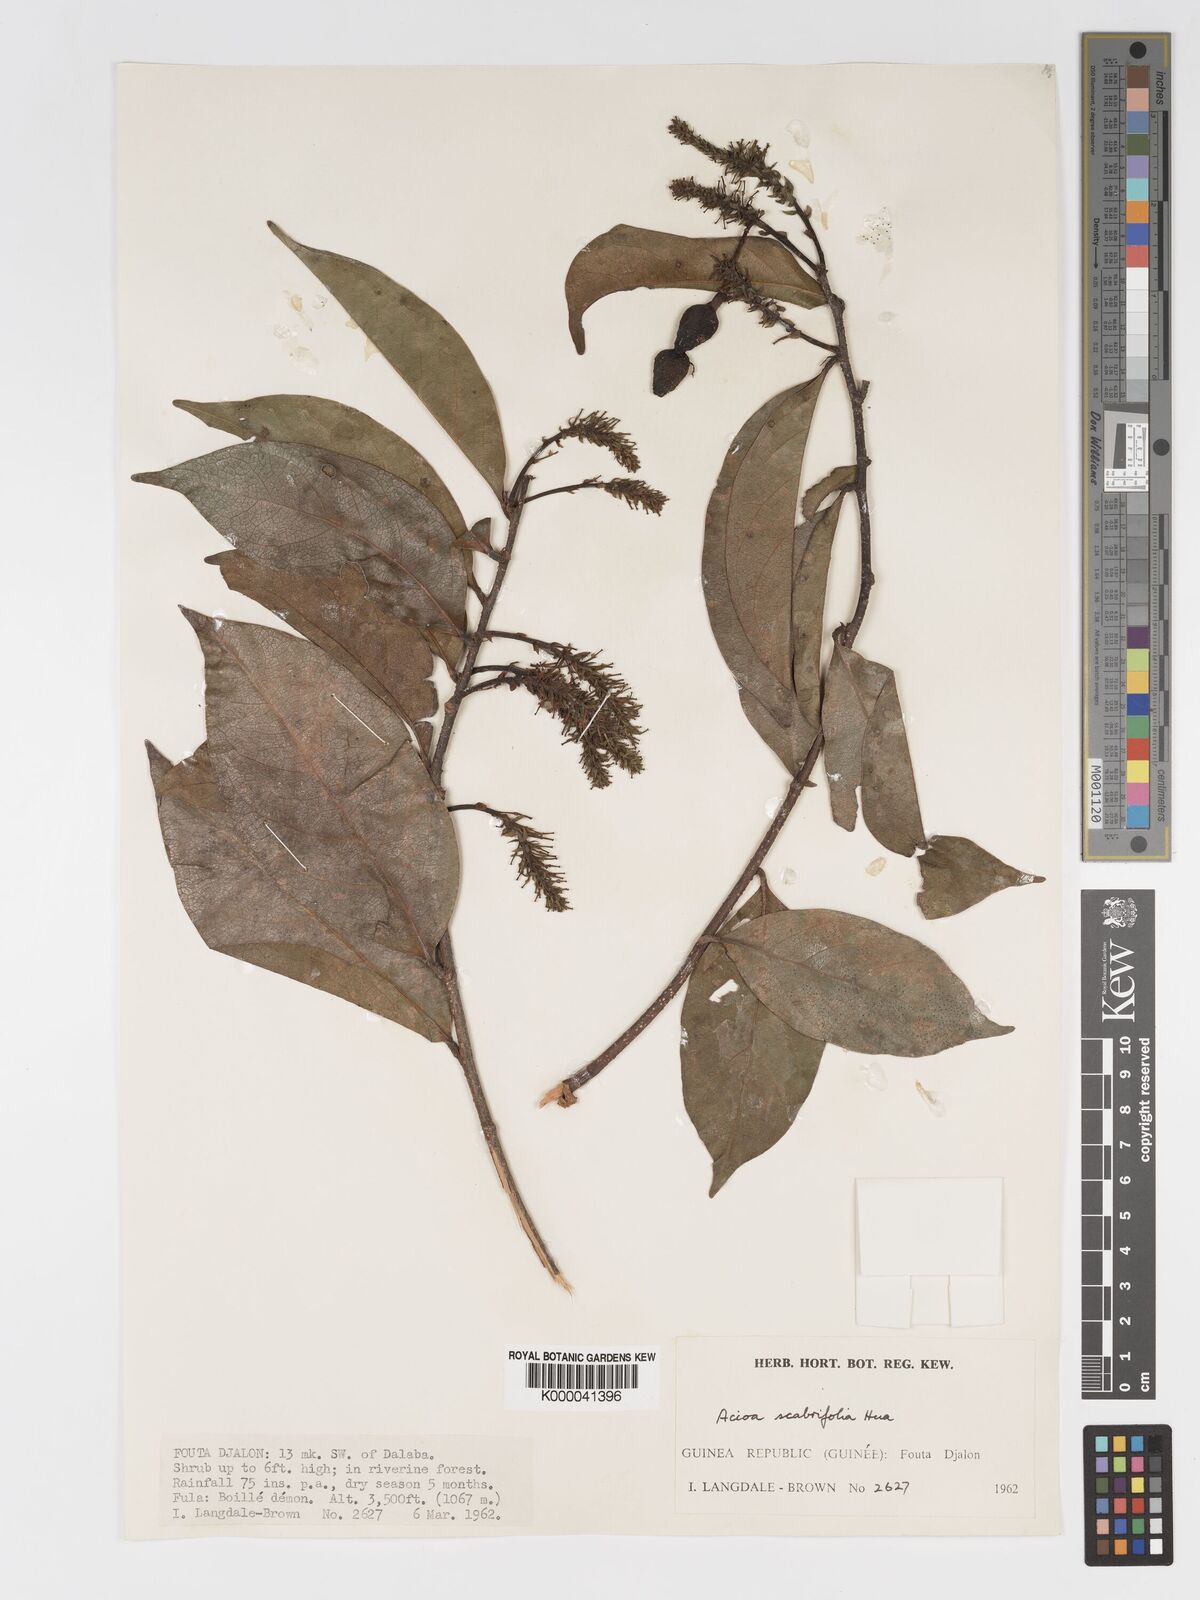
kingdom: Plantae
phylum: Tracheophyta
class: Magnoliopsida
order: Malpighiales
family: Chrysobalanaceae
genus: Dactyladenia
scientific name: Dactyladenia scabrifolia
